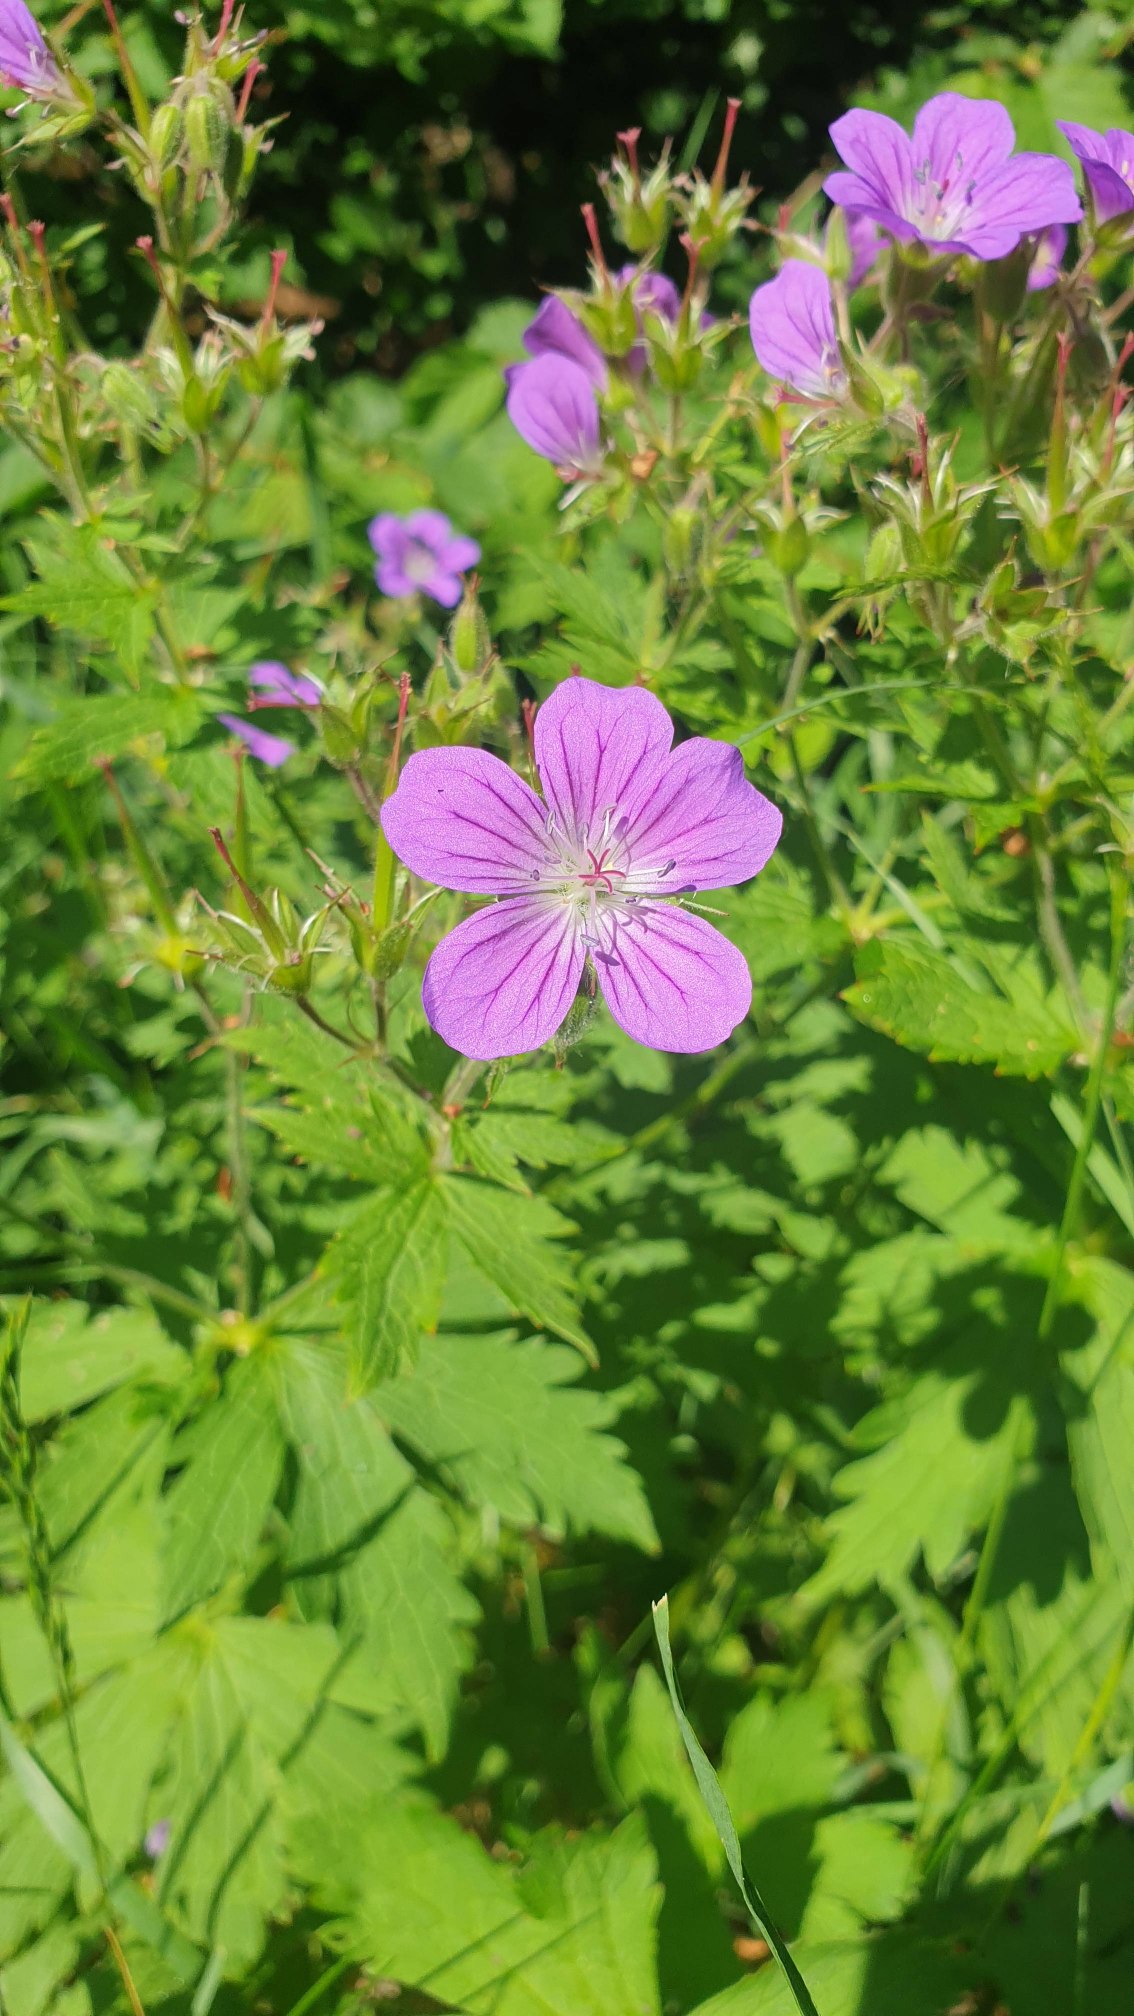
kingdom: Plantae
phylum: Tracheophyta
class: Magnoliopsida
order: Geraniales
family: Geraniaceae
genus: Geranium
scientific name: Geranium sylvaticum
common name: Skov-storkenæb
